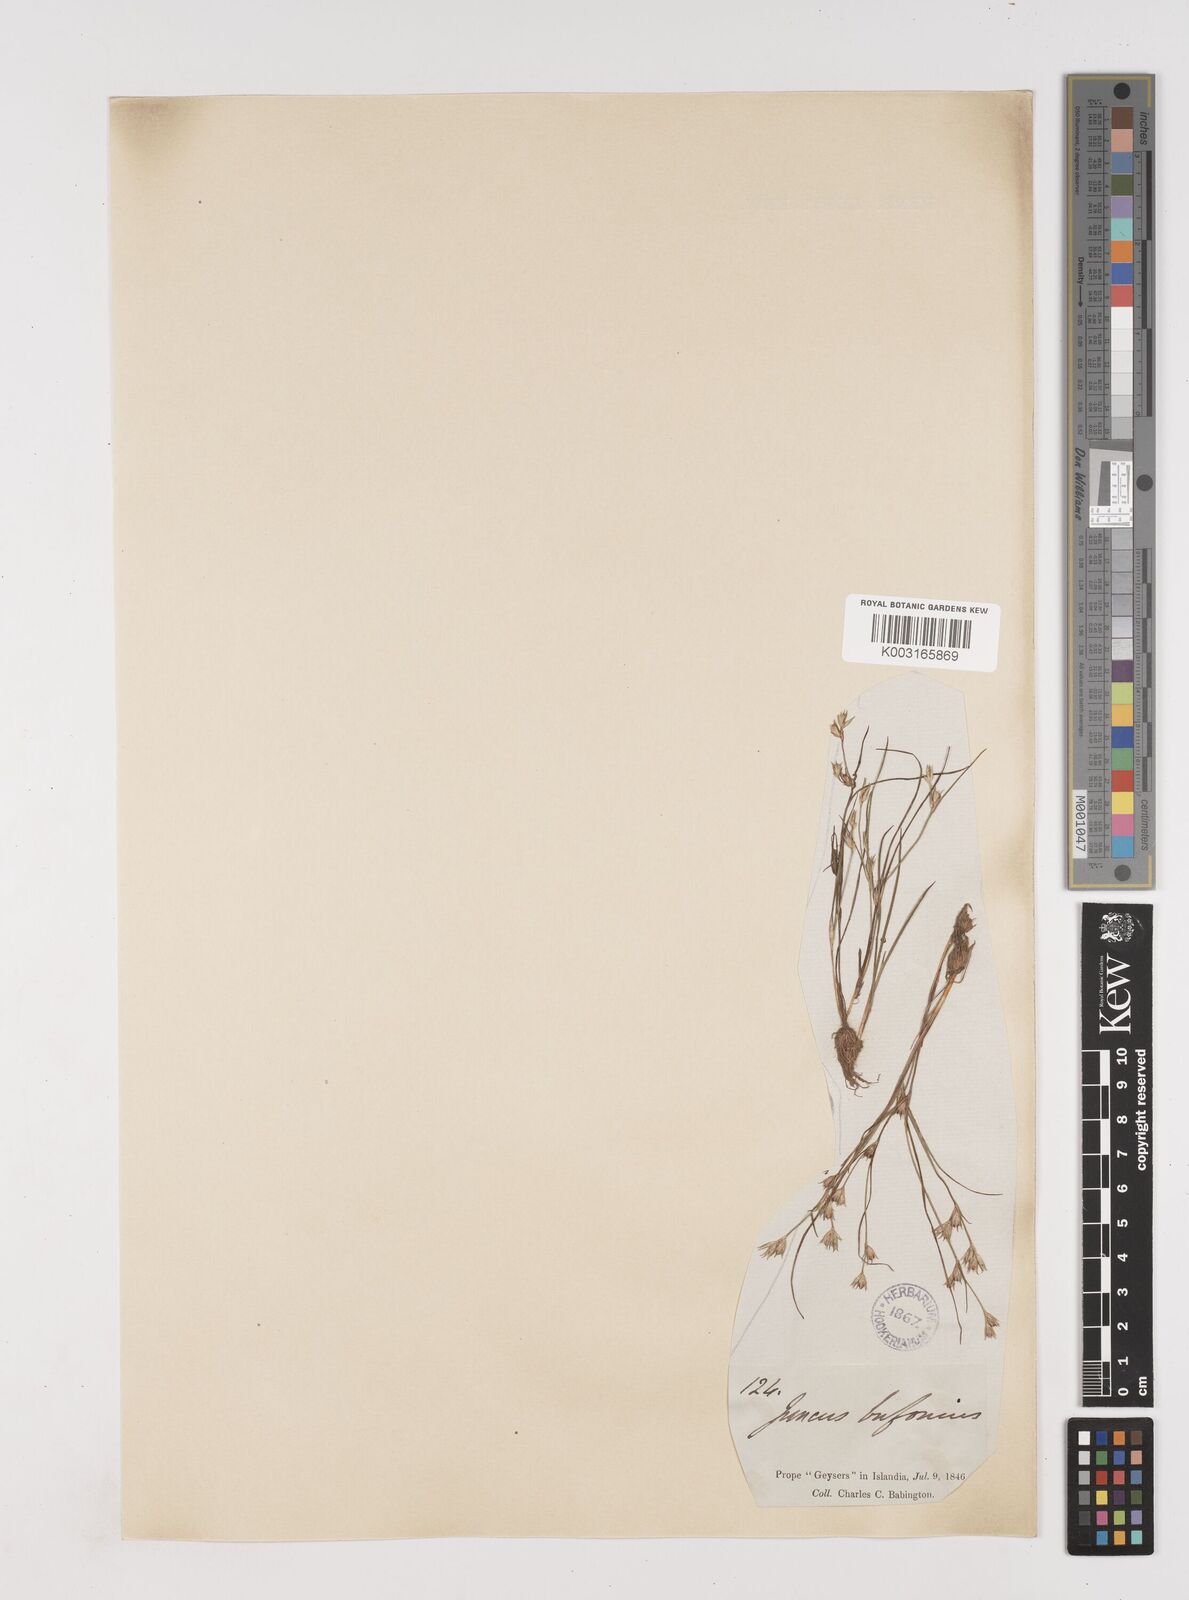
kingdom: Plantae
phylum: Tracheophyta
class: Liliopsida
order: Poales
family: Juncaceae
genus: Juncus
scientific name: Juncus bufonius
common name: Toad rush
